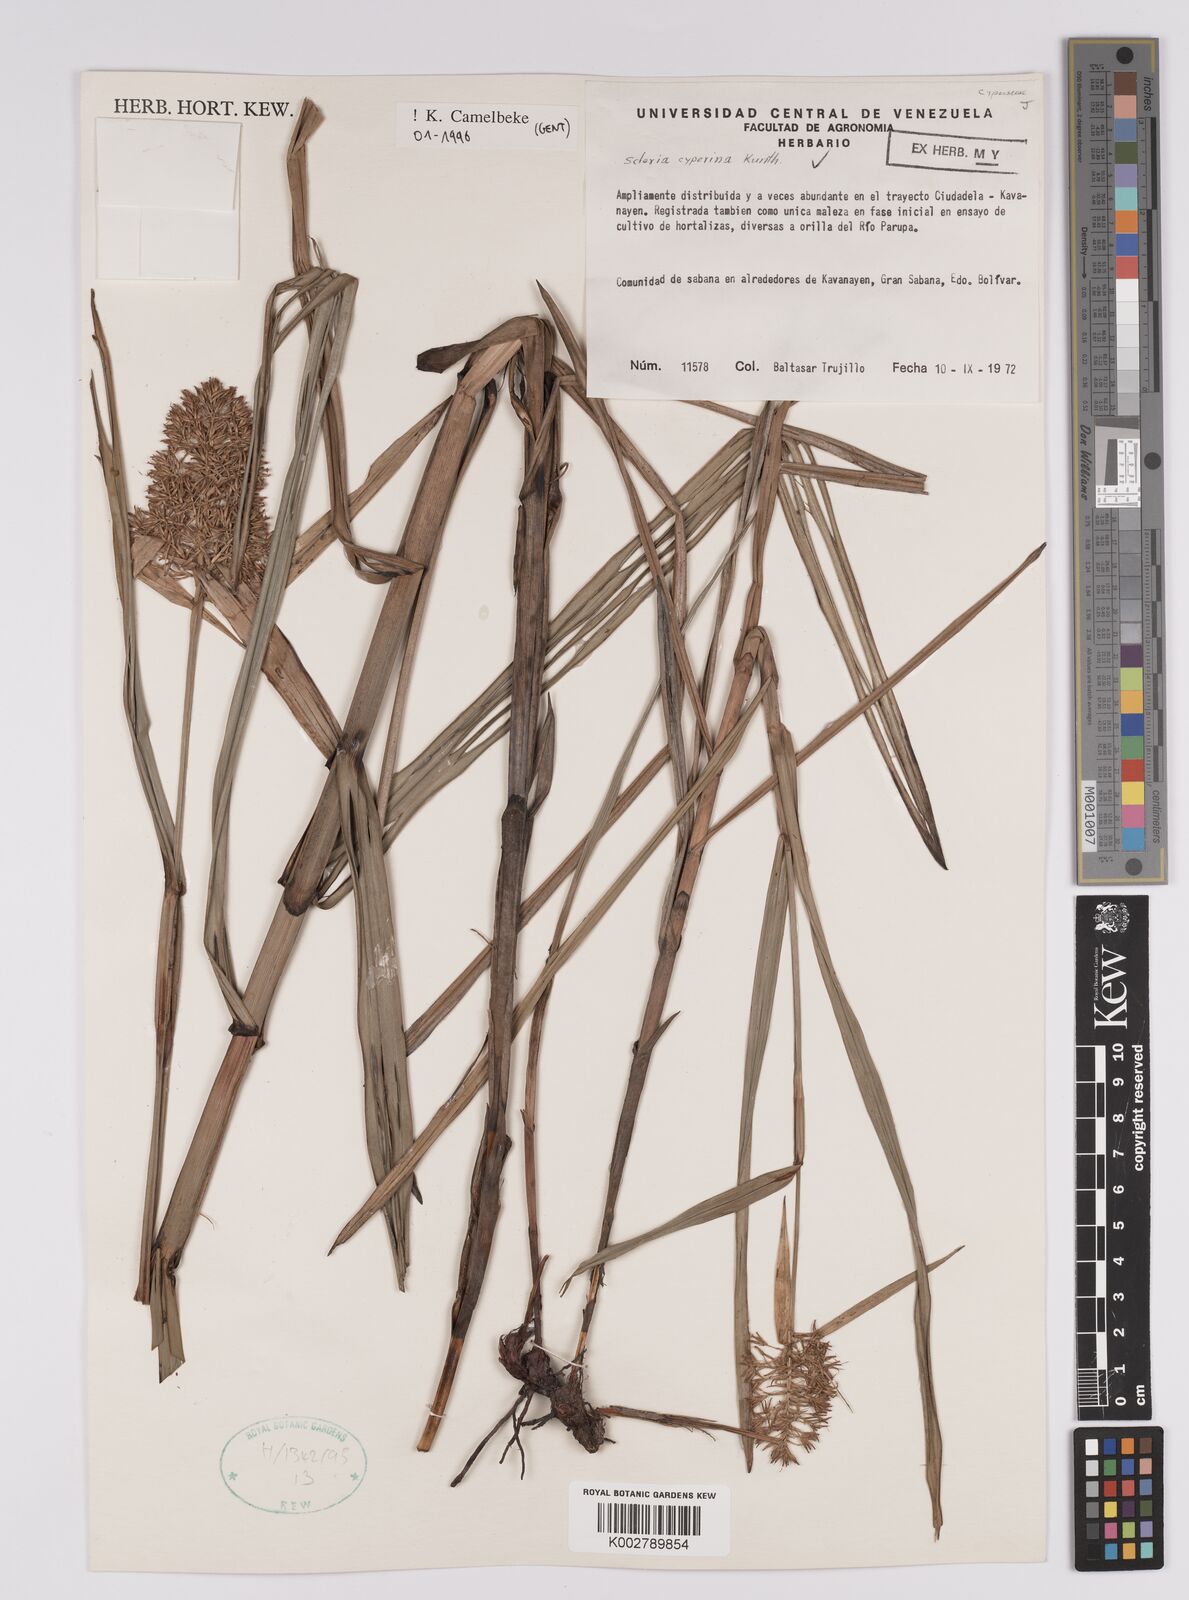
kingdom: Plantae
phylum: Tracheophyta
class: Liliopsida
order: Poales
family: Cyperaceae
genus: Scleria
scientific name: Scleria cyperina
